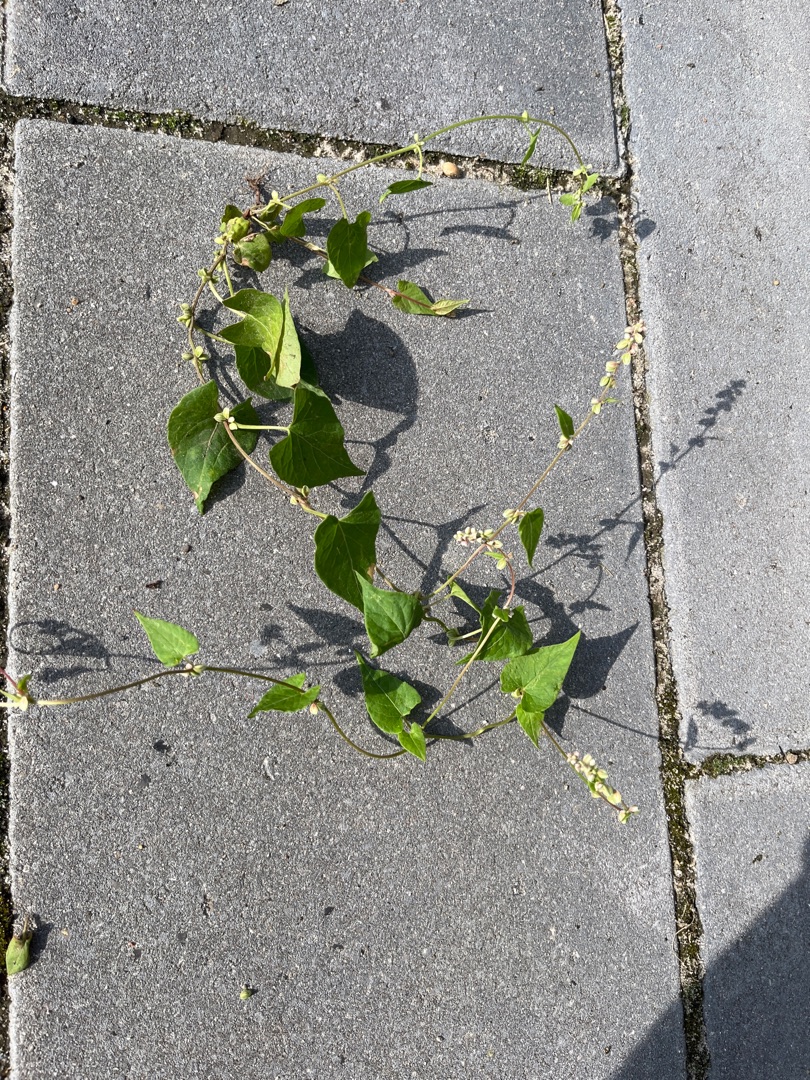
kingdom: Plantae
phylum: Tracheophyta
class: Magnoliopsida
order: Caryophyllales
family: Polygonaceae
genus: Fallopia
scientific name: Fallopia convolvulus
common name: Snerle-pileurt
